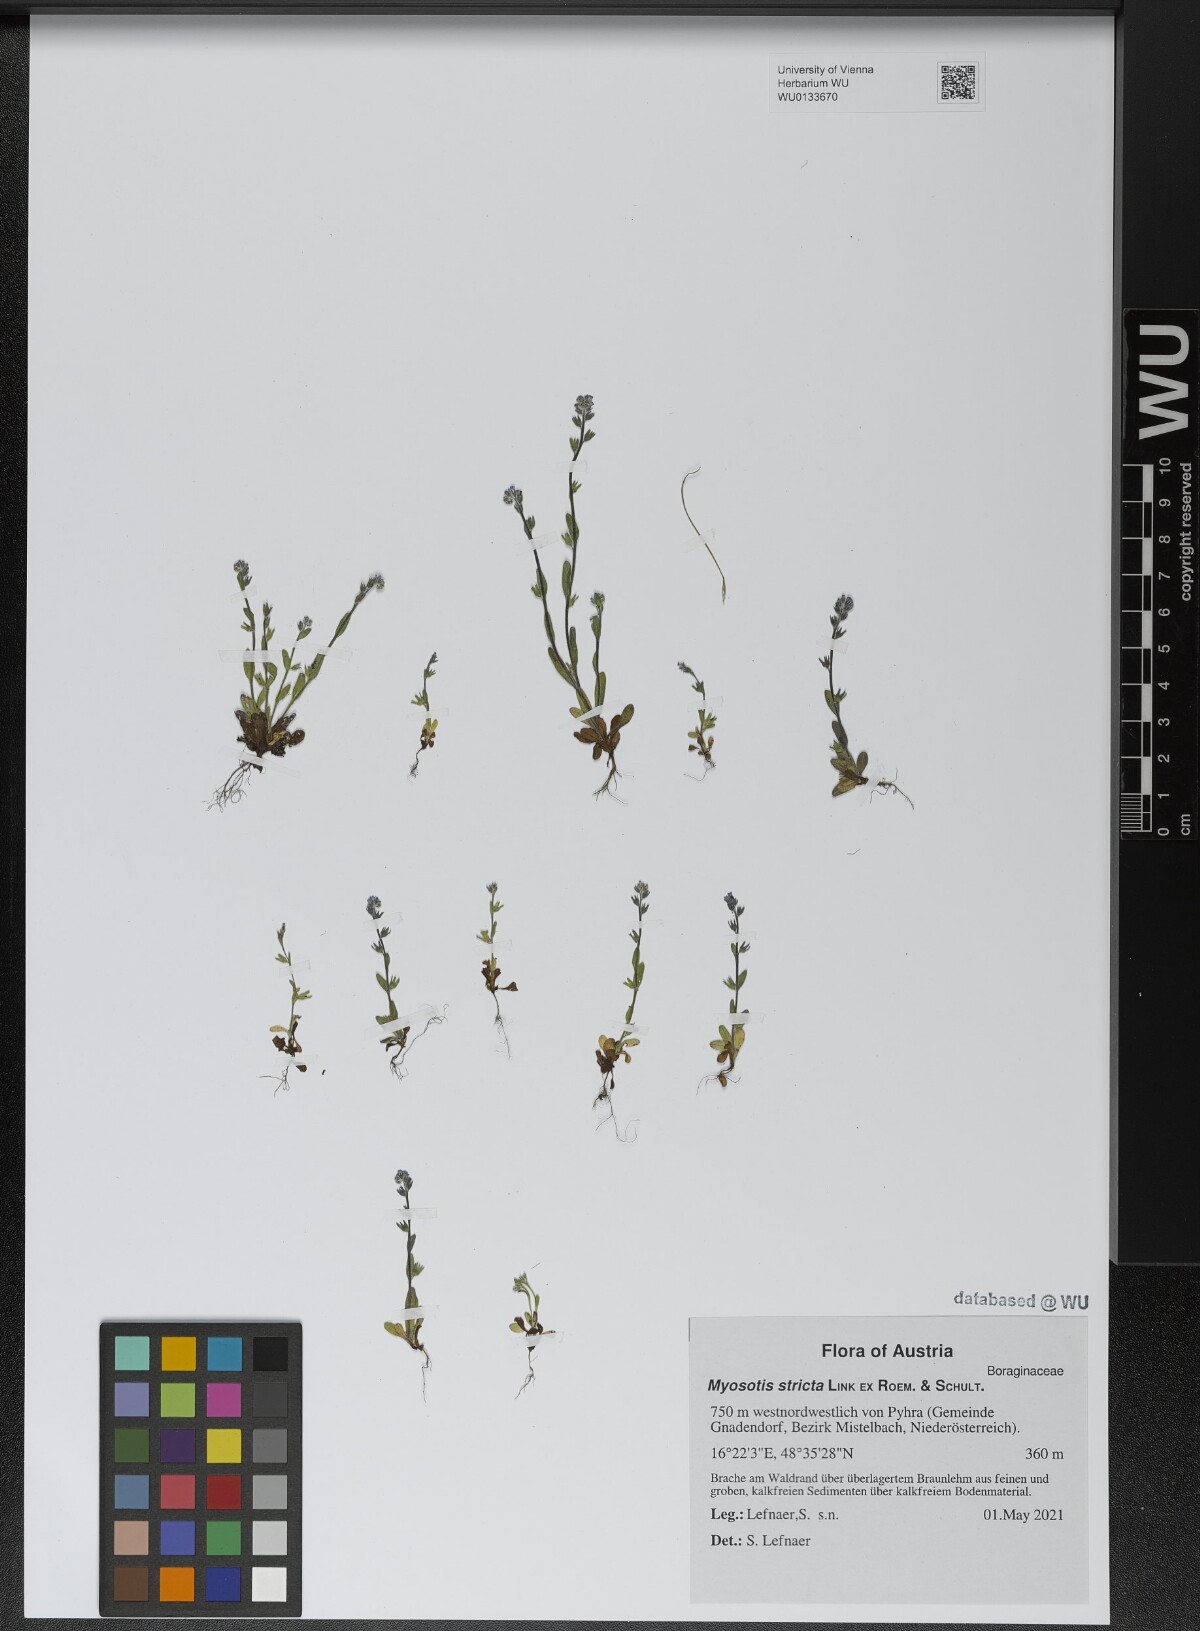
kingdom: Plantae
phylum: Tracheophyta
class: Magnoliopsida
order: Boraginales
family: Boraginaceae
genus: Myosotis
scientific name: Myosotis stricta
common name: Strict forget-me-not
